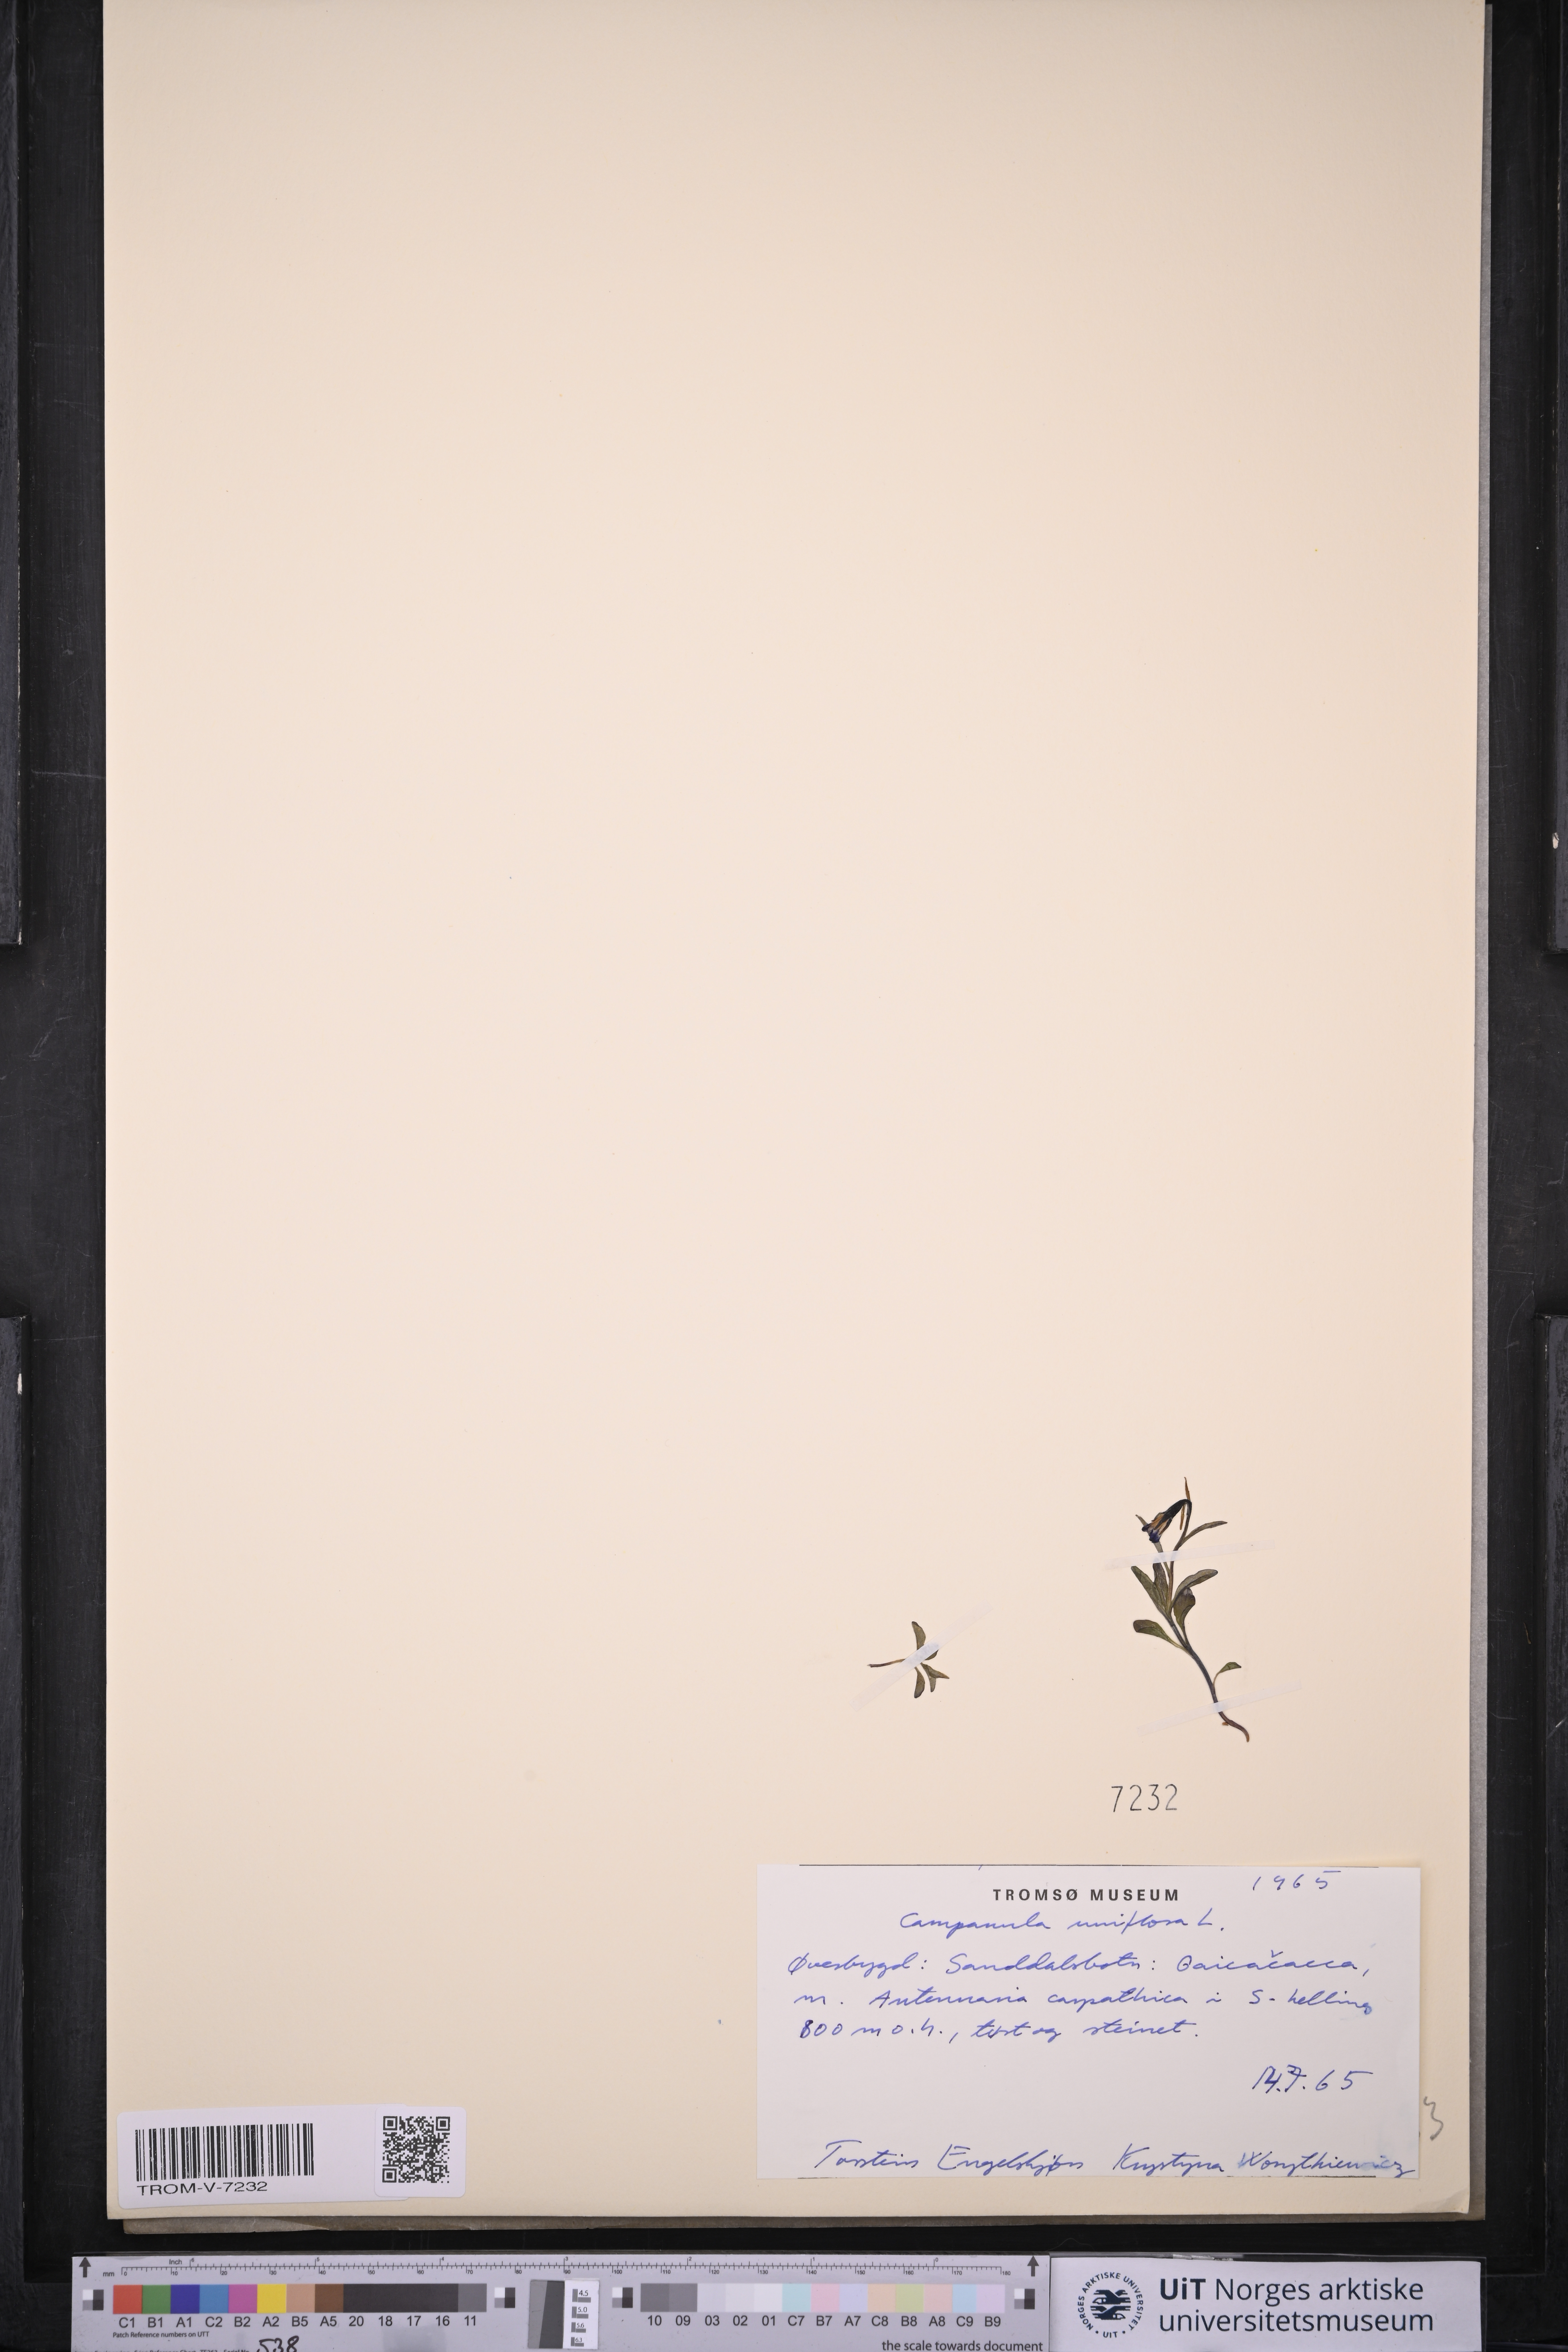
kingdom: Plantae
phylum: Tracheophyta
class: Magnoliopsida
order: Asterales
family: Campanulaceae
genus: Melanocalyx
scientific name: Melanocalyx uniflora
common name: Alpine harebell
